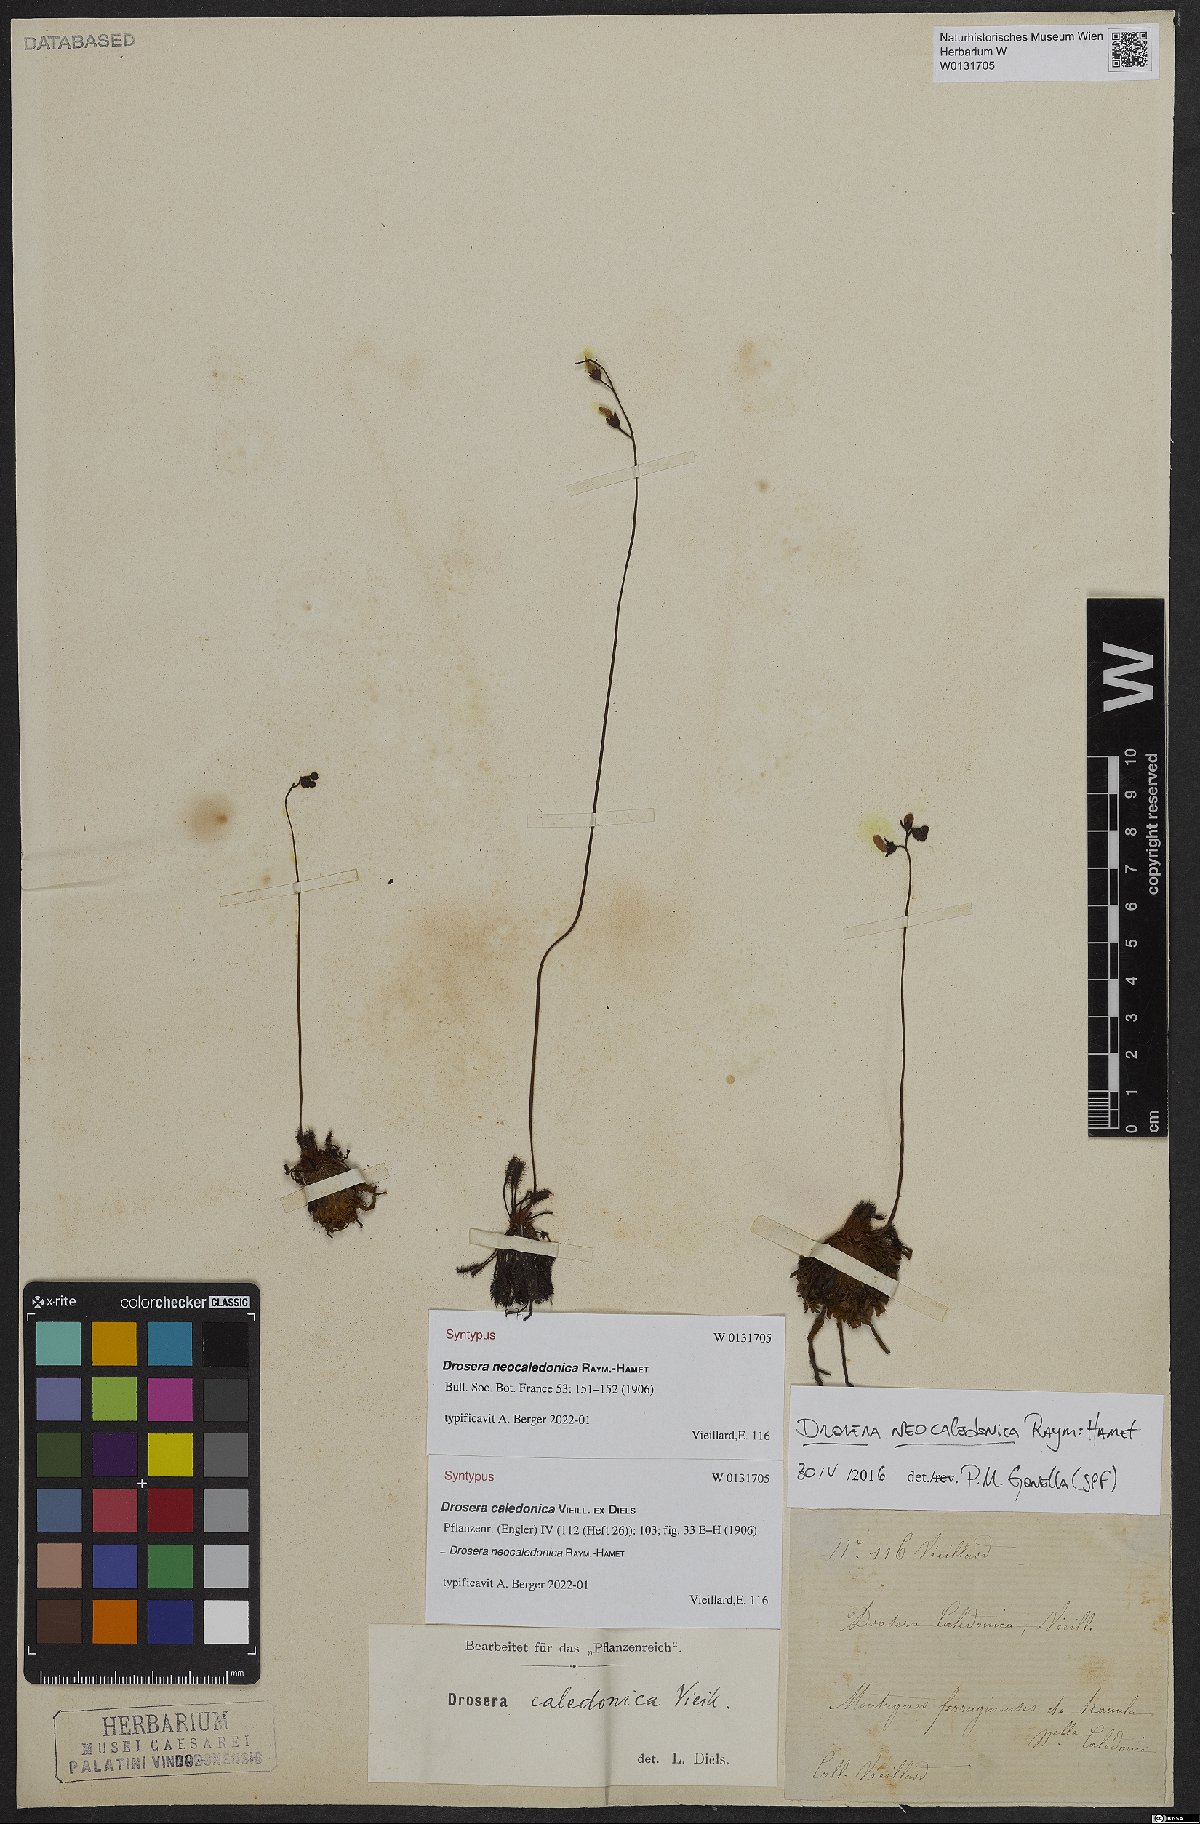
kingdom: Plantae
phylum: Tracheophyta
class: Magnoliopsida
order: Caryophyllales
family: Droseraceae
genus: Drosera
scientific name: Drosera neocaledonica
